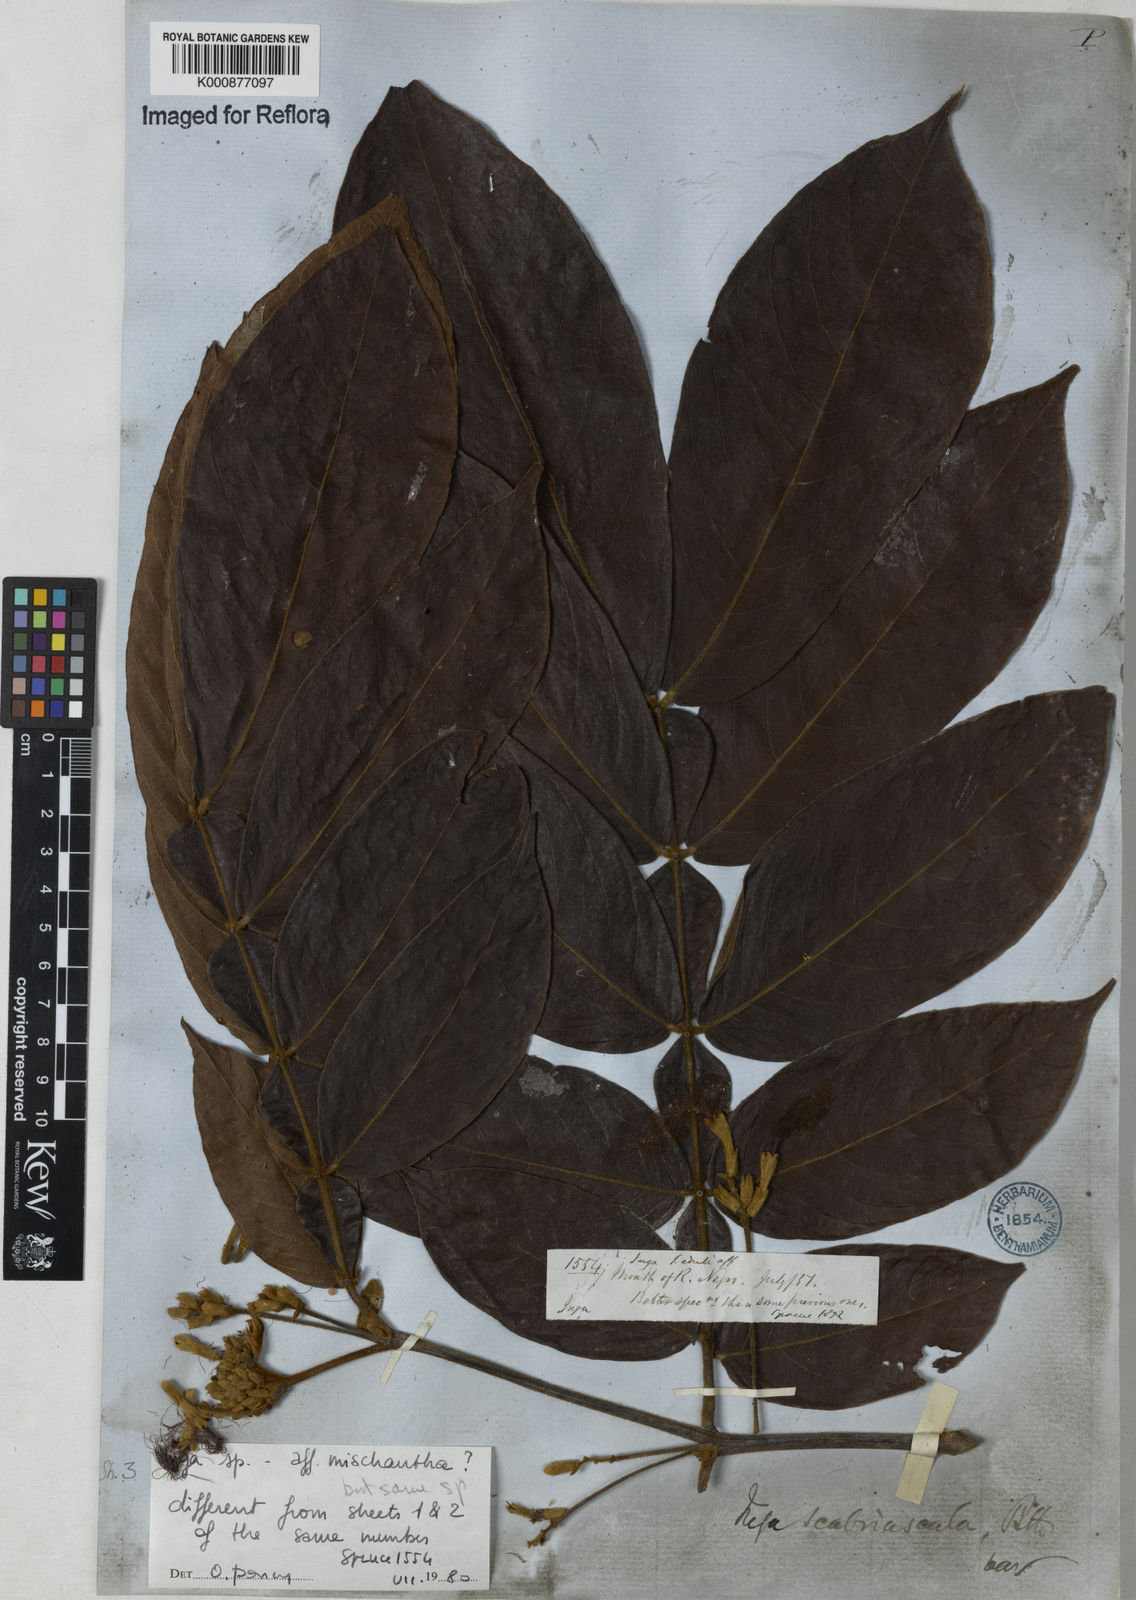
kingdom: Plantae
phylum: Tracheophyta
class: Magnoliopsida
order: Fabales
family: Fabaceae
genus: Inga
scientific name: Inga affinis
